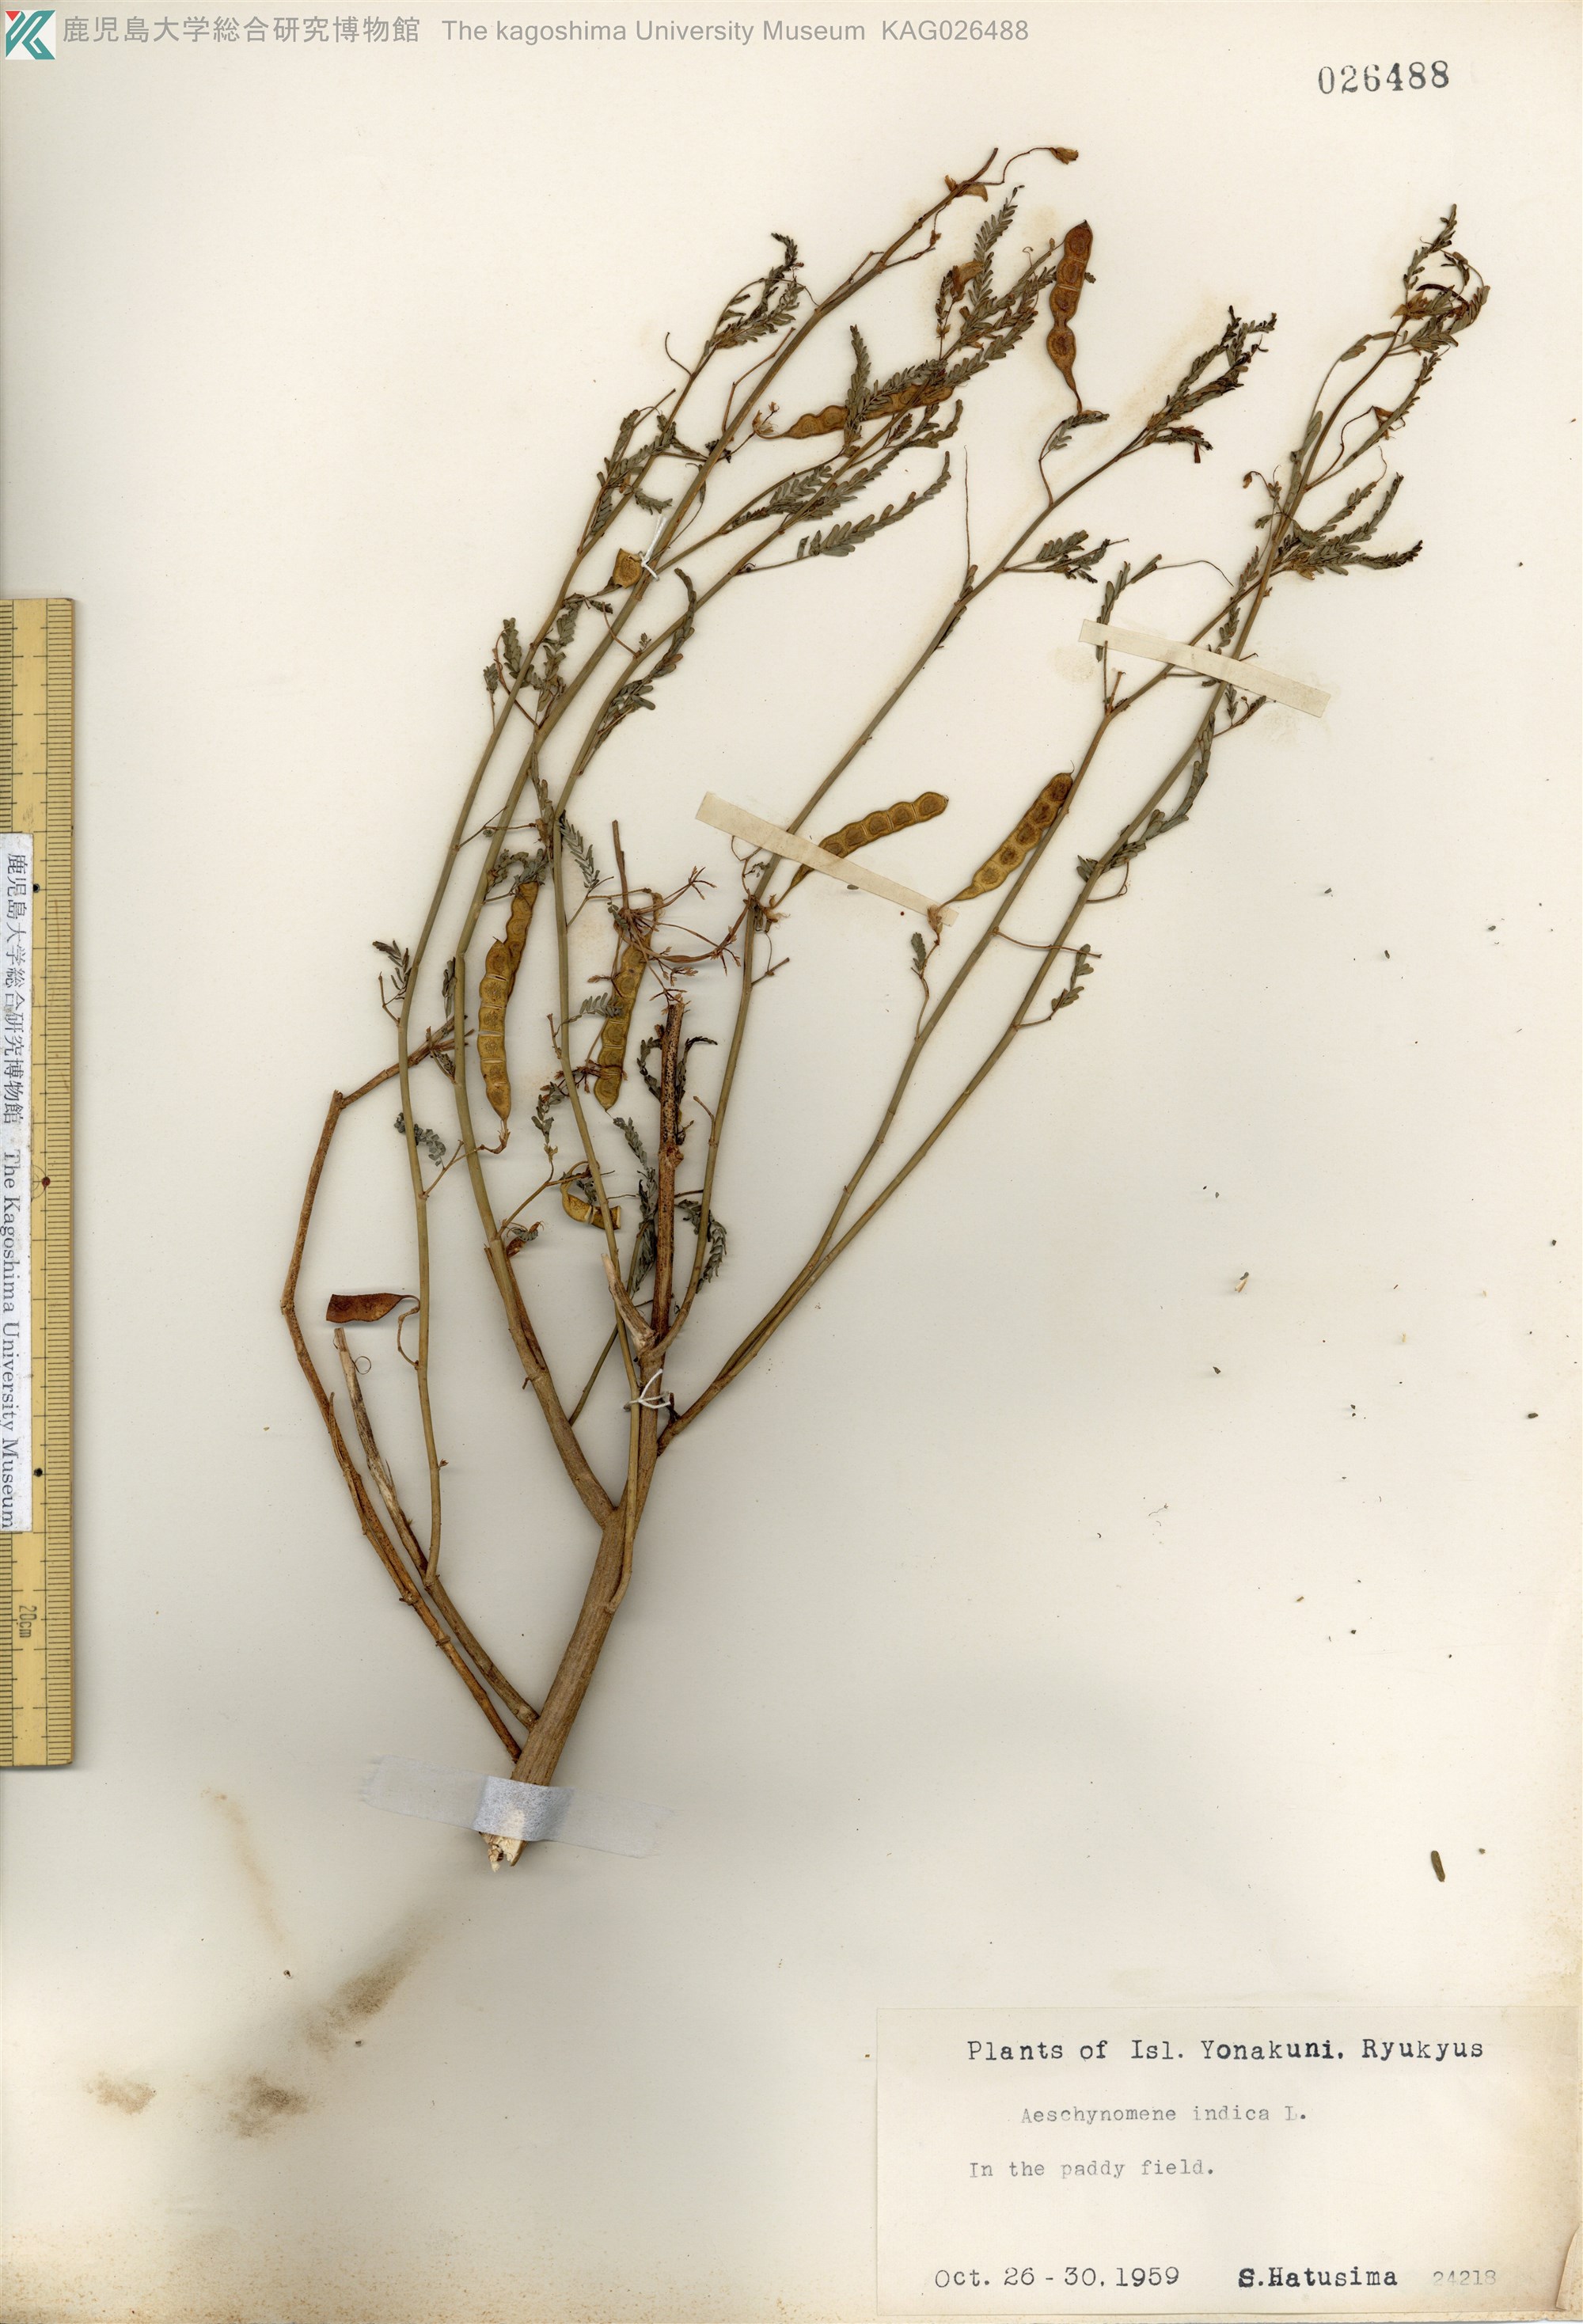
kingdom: Plantae
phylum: Tracheophyta
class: Magnoliopsida
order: Fabales
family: Fabaceae
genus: Aeschynomene
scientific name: Aeschynomene indica
